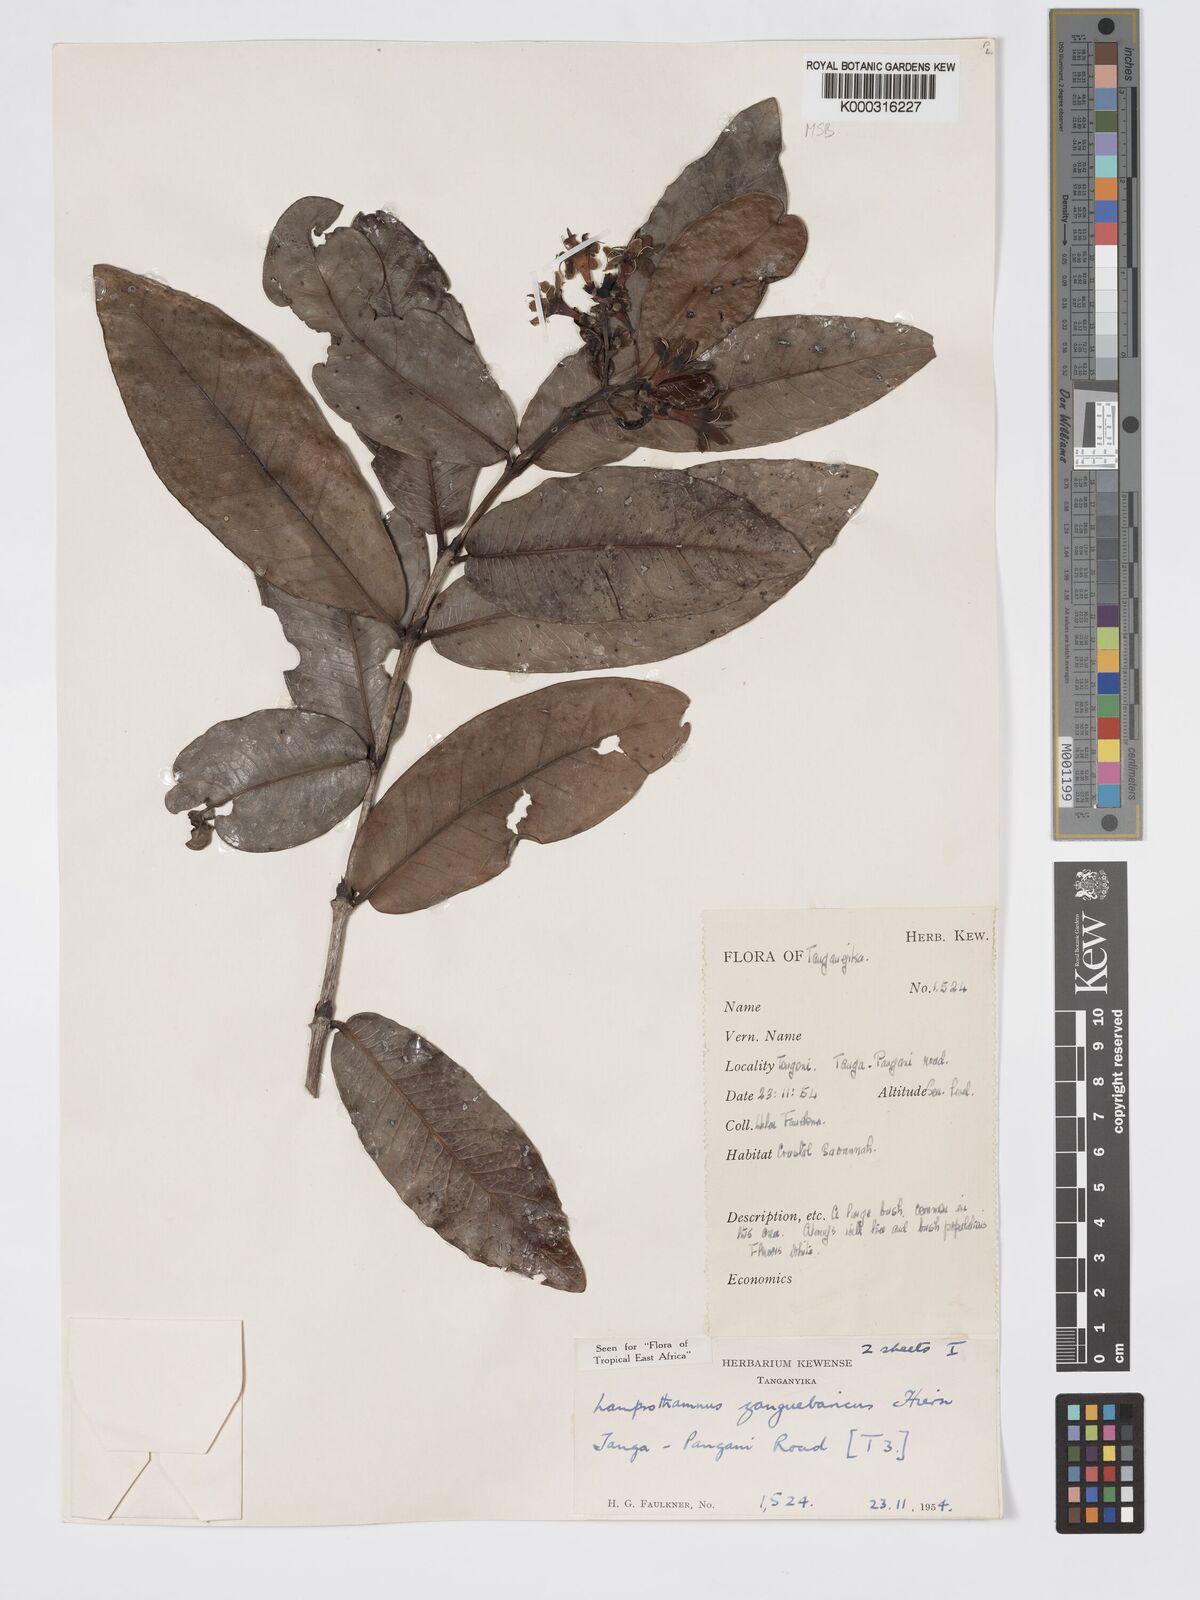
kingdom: Plantae
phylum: Tracheophyta
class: Magnoliopsida
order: Gentianales
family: Rubiaceae
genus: Lamprothamnus
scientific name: Lamprothamnus zanguebaricus
